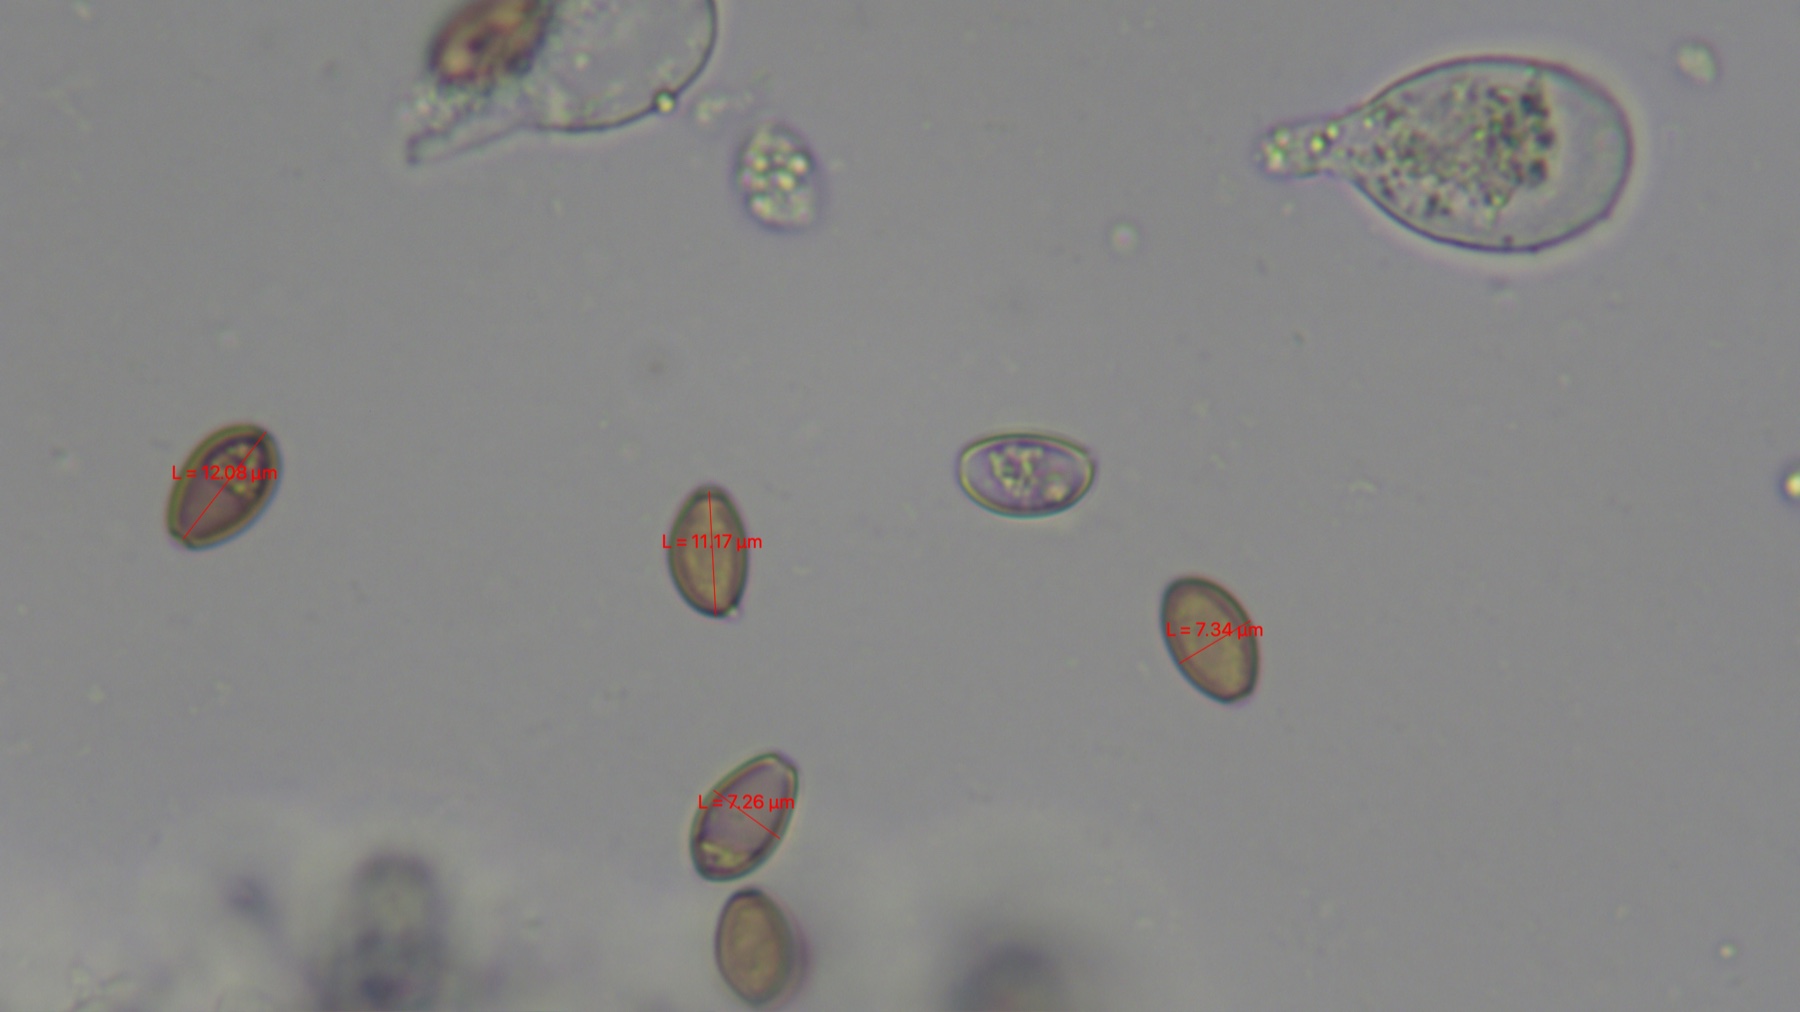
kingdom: Fungi
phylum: Basidiomycota
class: Agaricomycetes
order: Agaricales
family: Strophariaceae
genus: Agrocybe
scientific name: Agrocybe dura
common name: fastkødet agerhat
